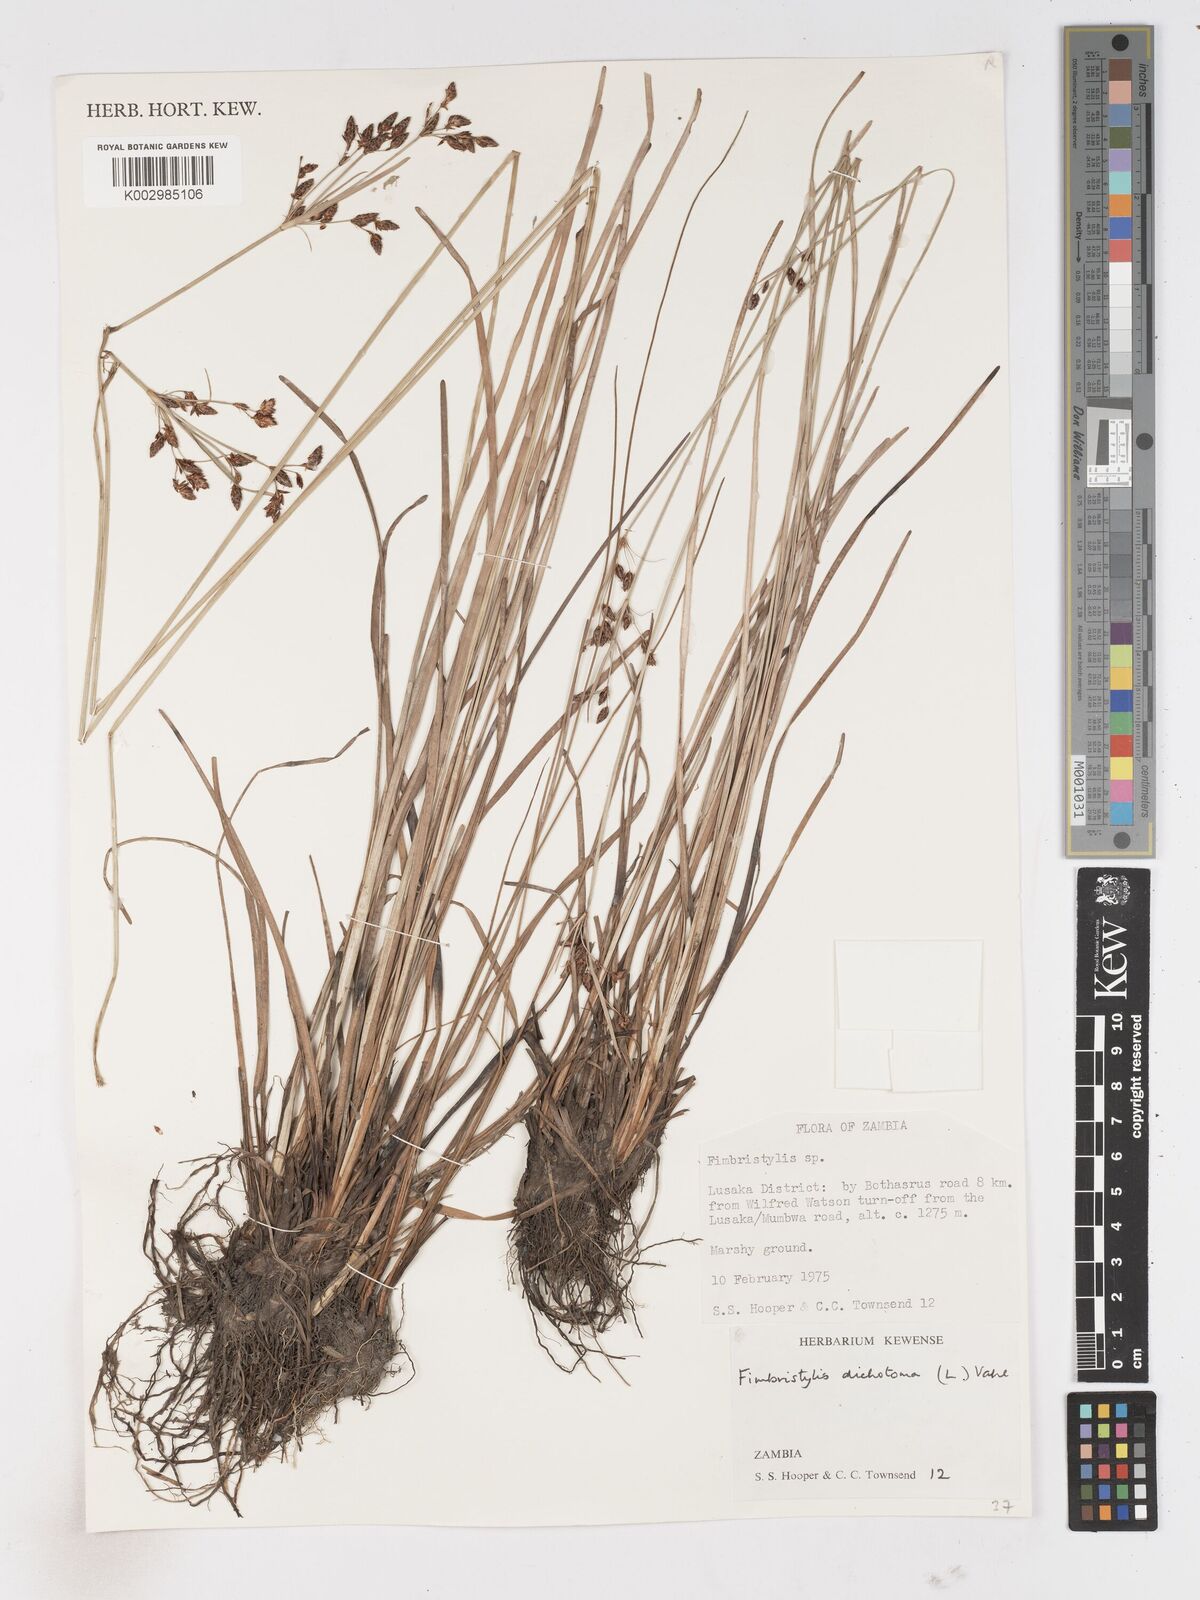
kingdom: Plantae
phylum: Tracheophyta
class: Liliopsida
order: Poales
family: Cyperaceae
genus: Fimbristylis
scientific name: Fimbristylis dichotoma
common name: Forked fimbry
